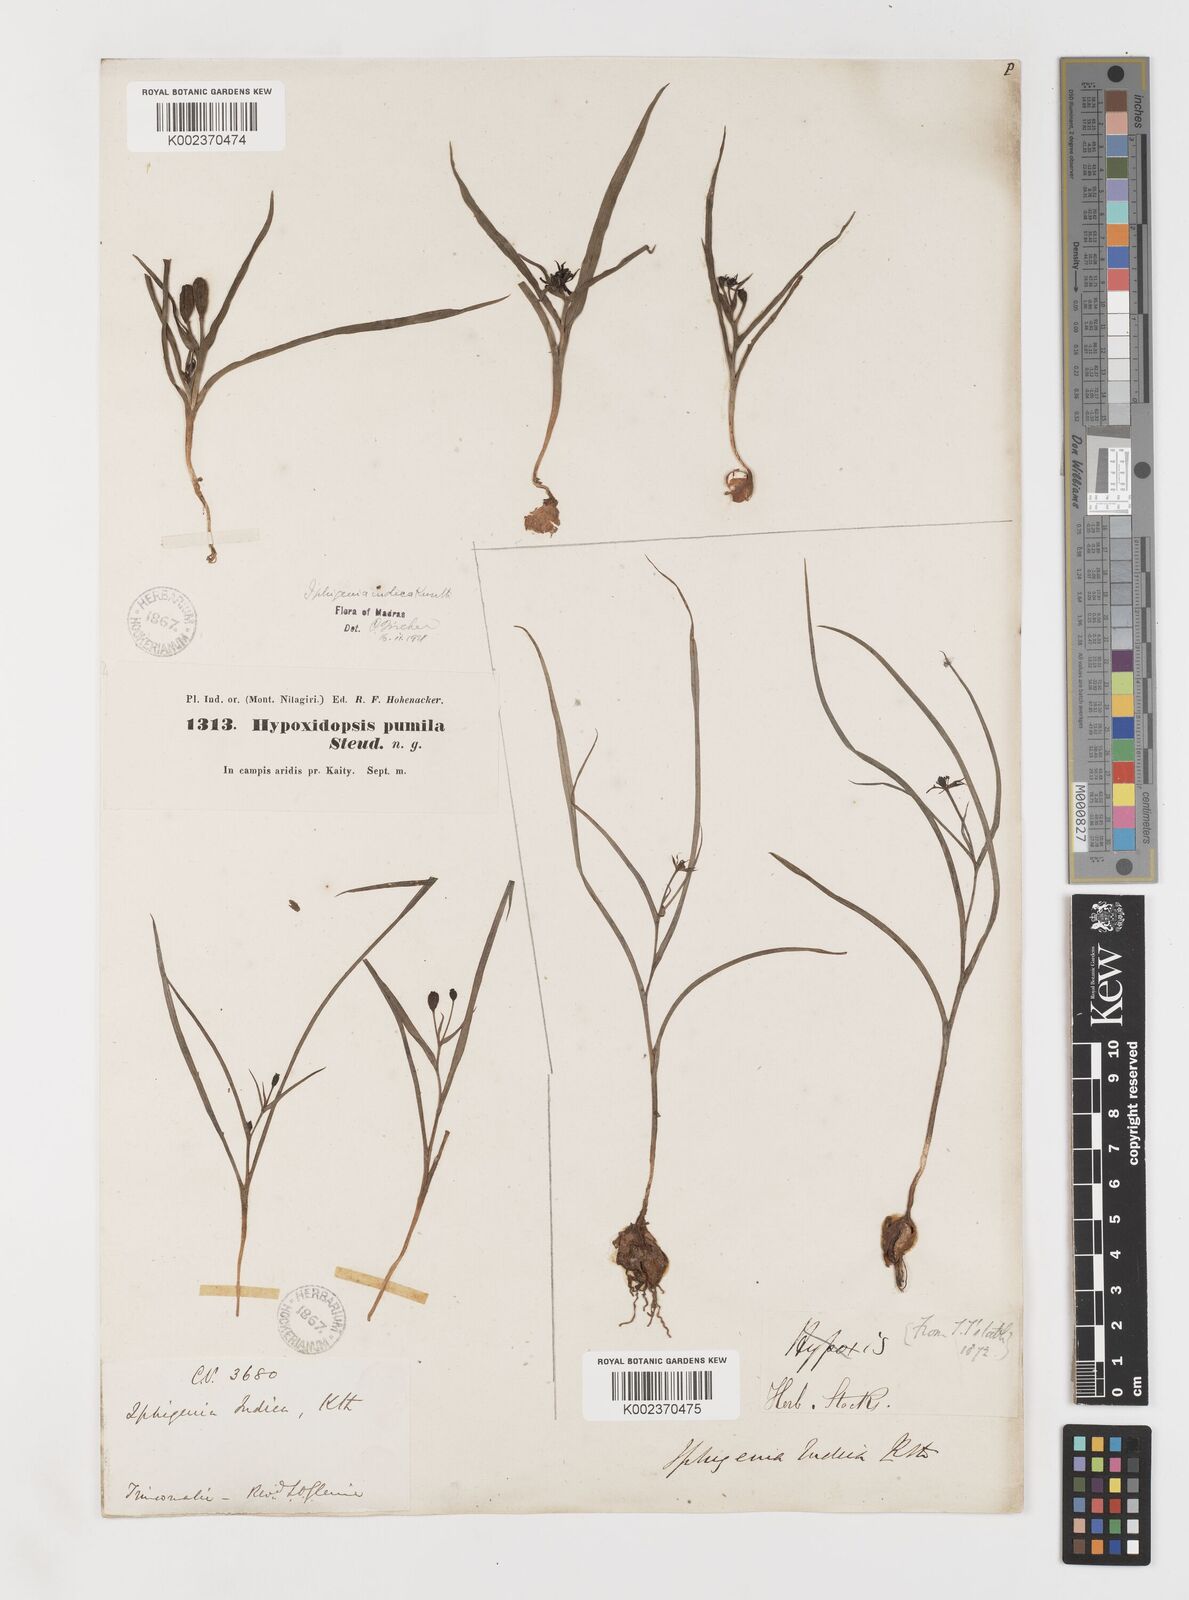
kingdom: Plantae
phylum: Tracheophyta
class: Liliopsida
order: Liliales
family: Colchicaceae
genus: Iphigenia
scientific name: Iphigenia indica
